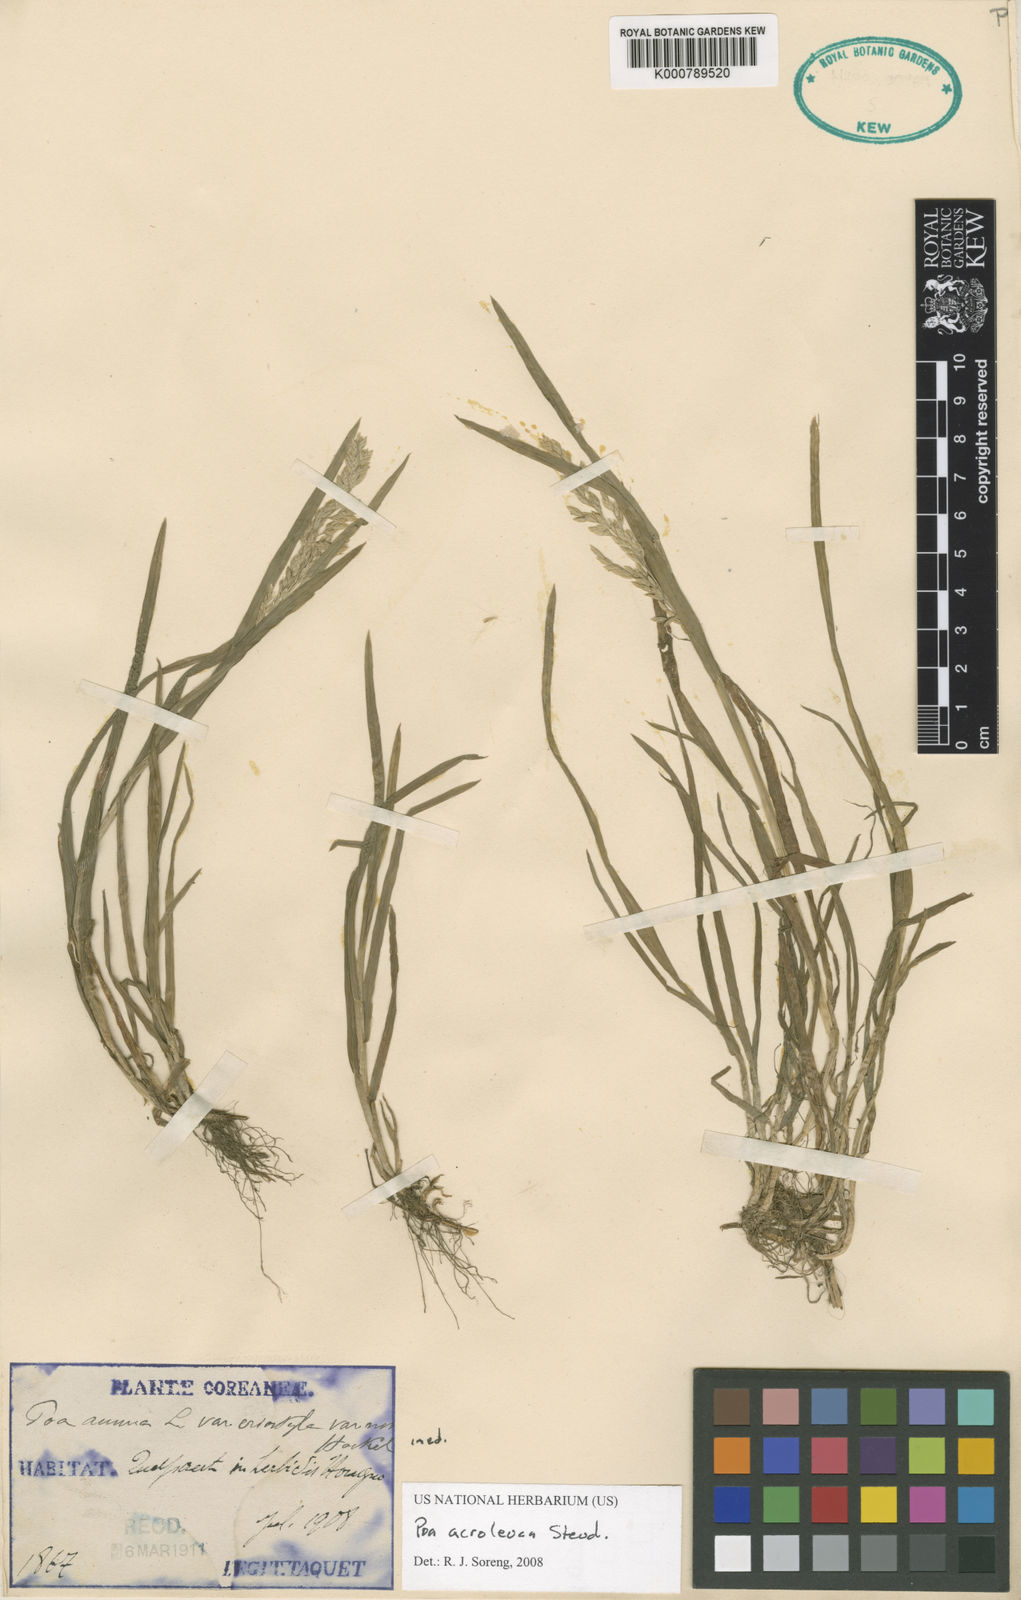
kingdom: Plantae
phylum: Tracheophyta
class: Liliopsida
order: Poales
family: Poaceae
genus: Poa
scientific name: Poa acroleuca
